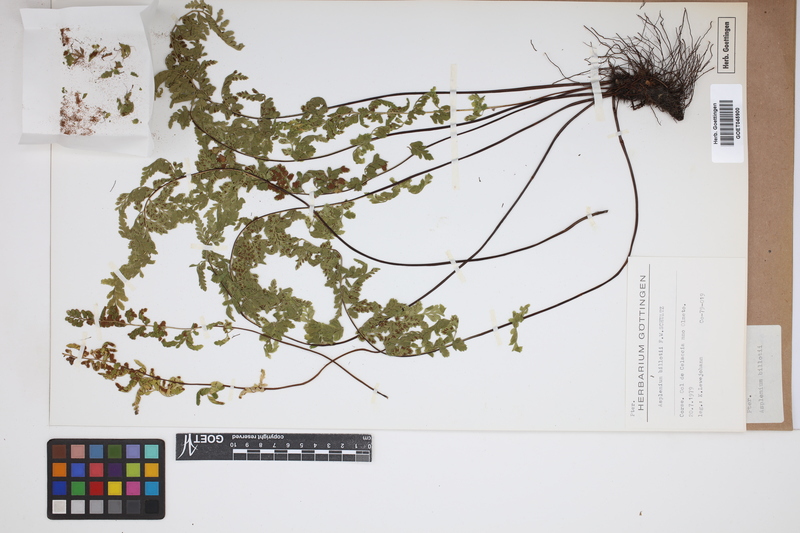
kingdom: Plantae
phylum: Tracheophyta
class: Polypodiopsida
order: Polypodiales
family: Aspleniaceae
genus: Asplenium
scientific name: Asplenium obovatum
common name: Lanceolate spleenwort
